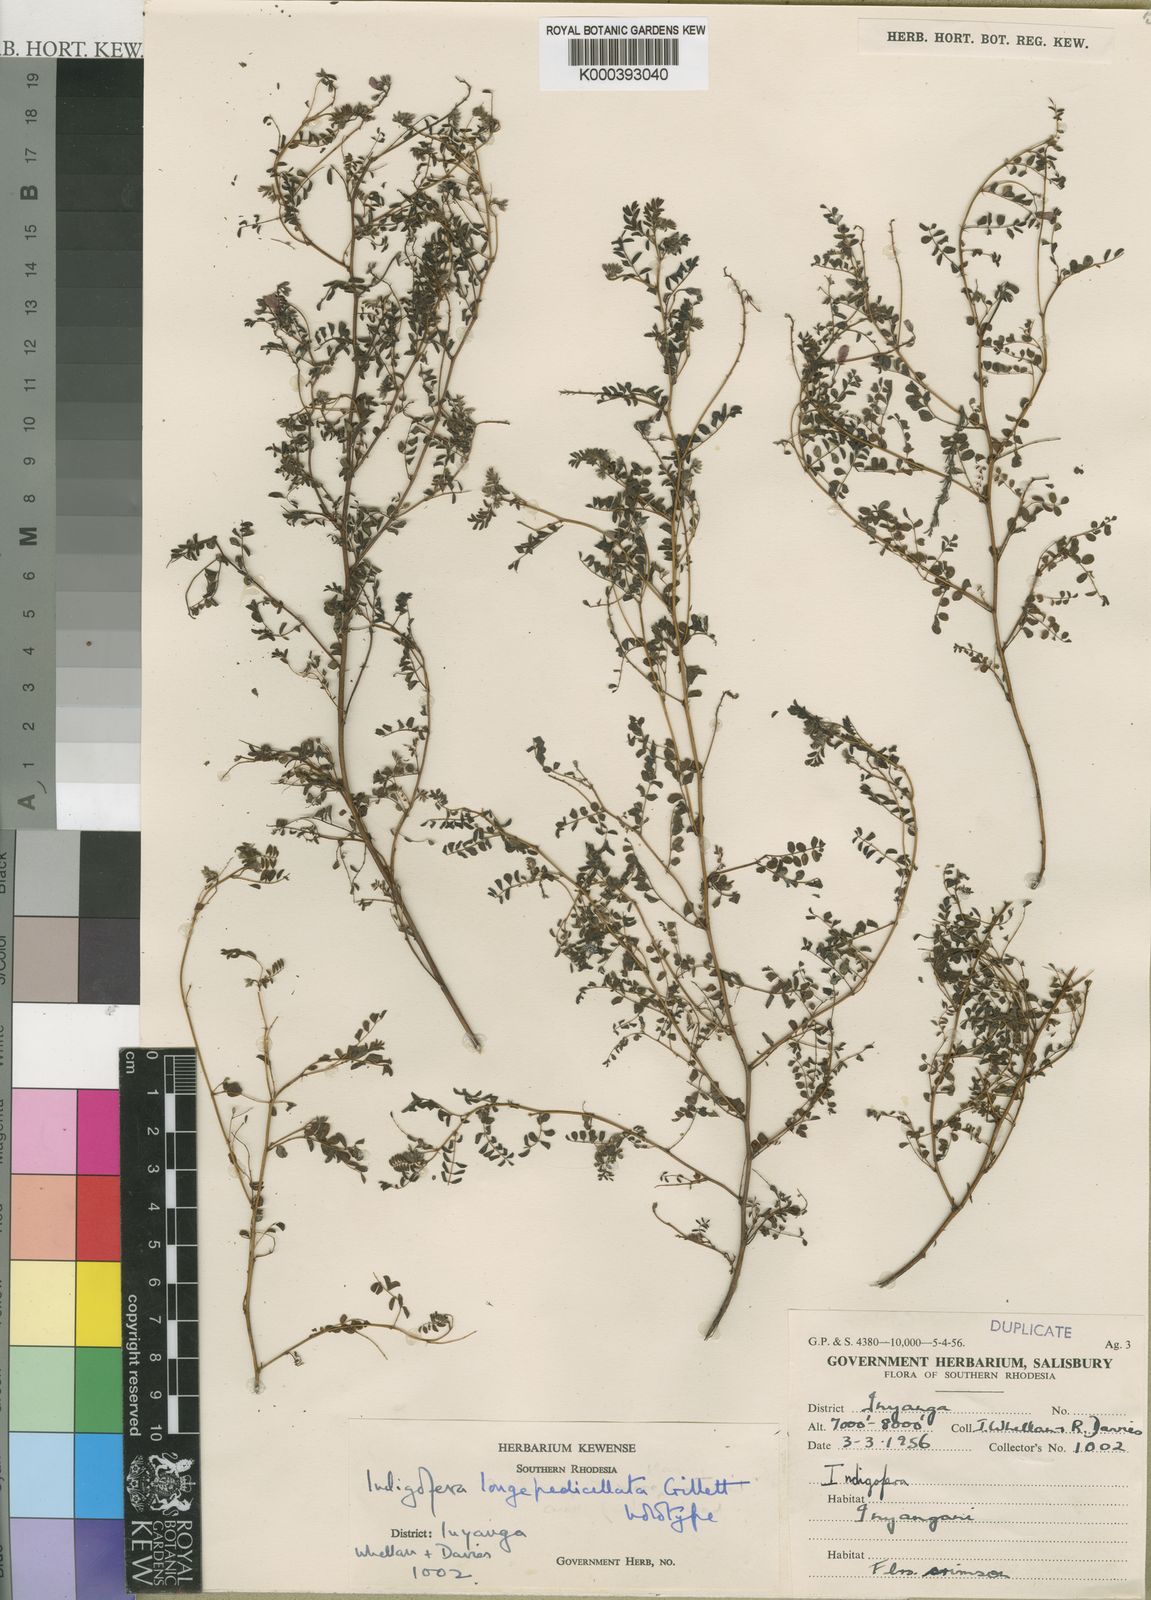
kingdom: Plantae
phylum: Tracheophyta
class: Magnoliopsida
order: Fabales
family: Fabaceae
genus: Indigofera
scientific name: Indigofera
